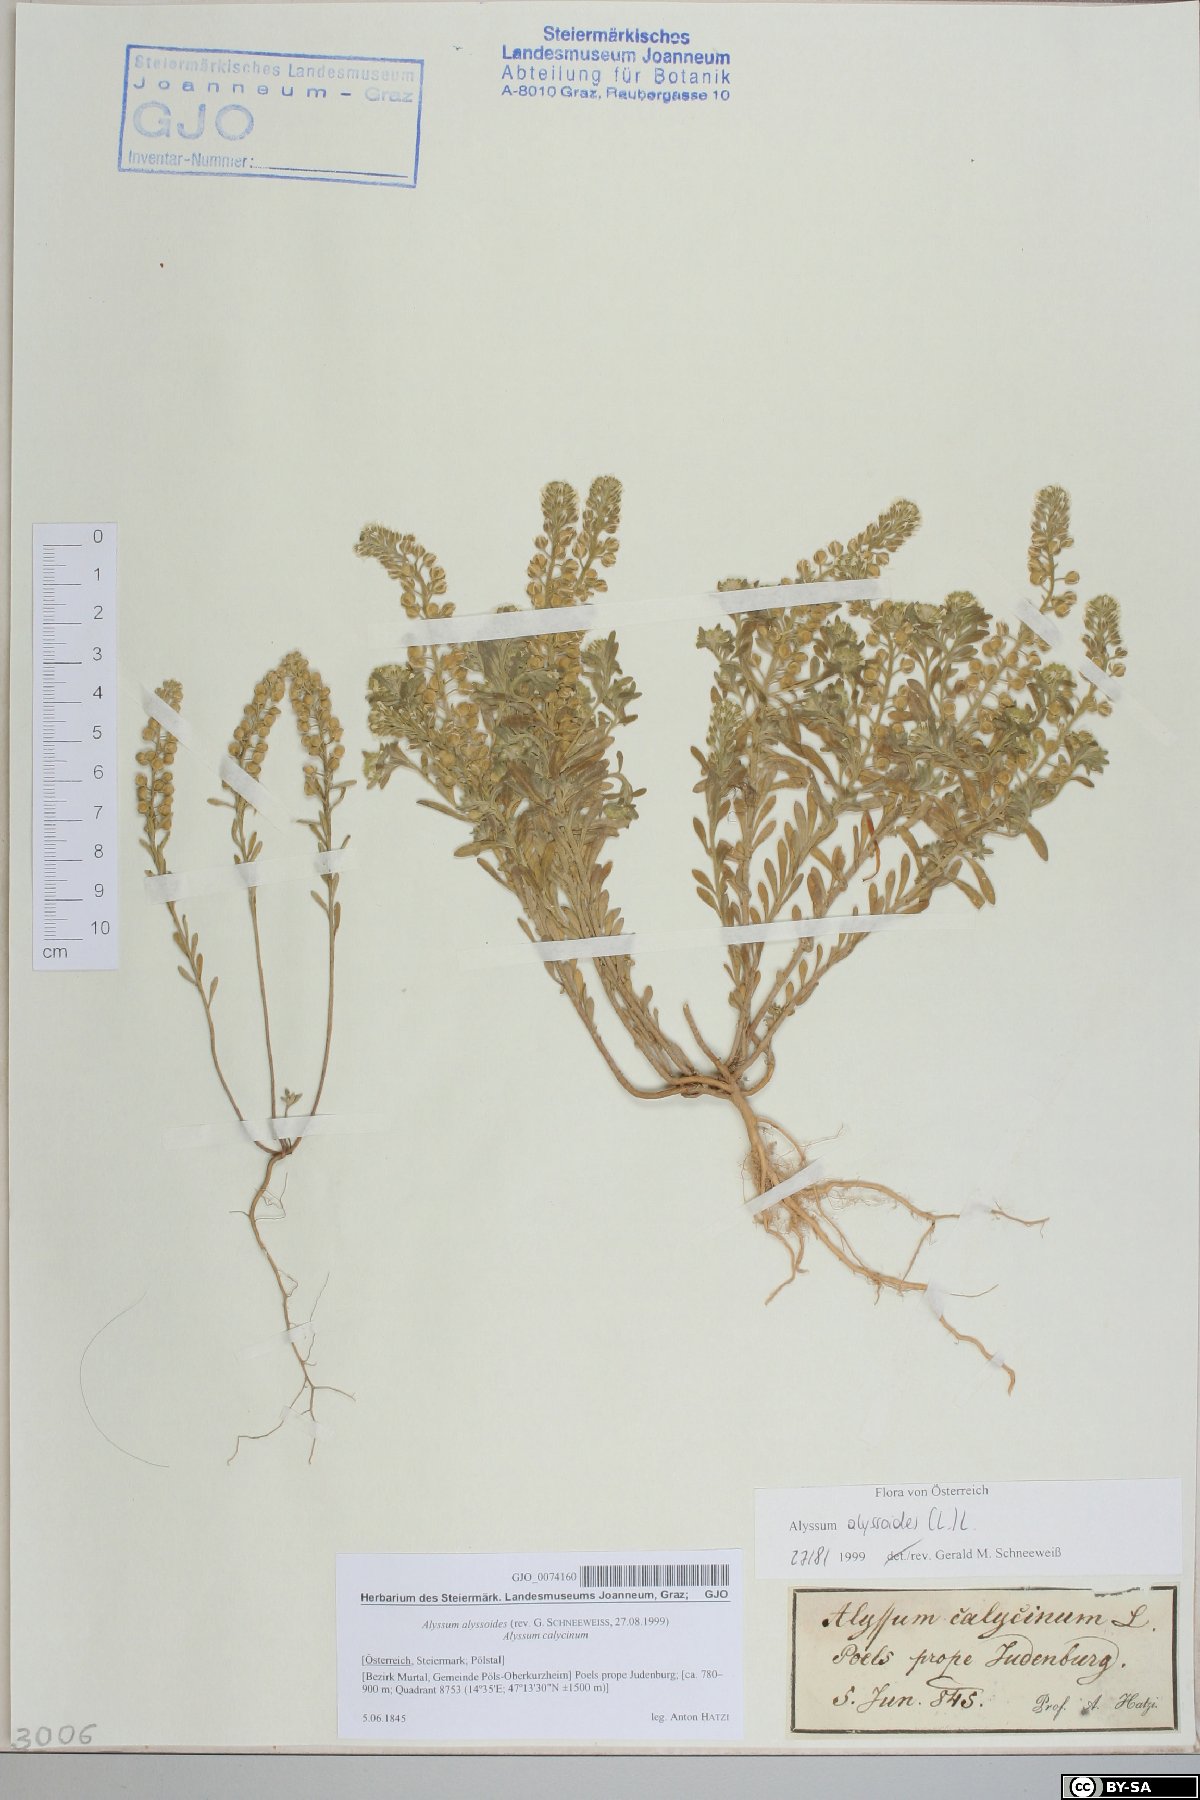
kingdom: Plantae
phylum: Tracheophyta
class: Magnoliopsida
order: Brassicales
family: Brassicaceae
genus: Alyssum
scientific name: Alyssum alyssoides
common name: Small alison
